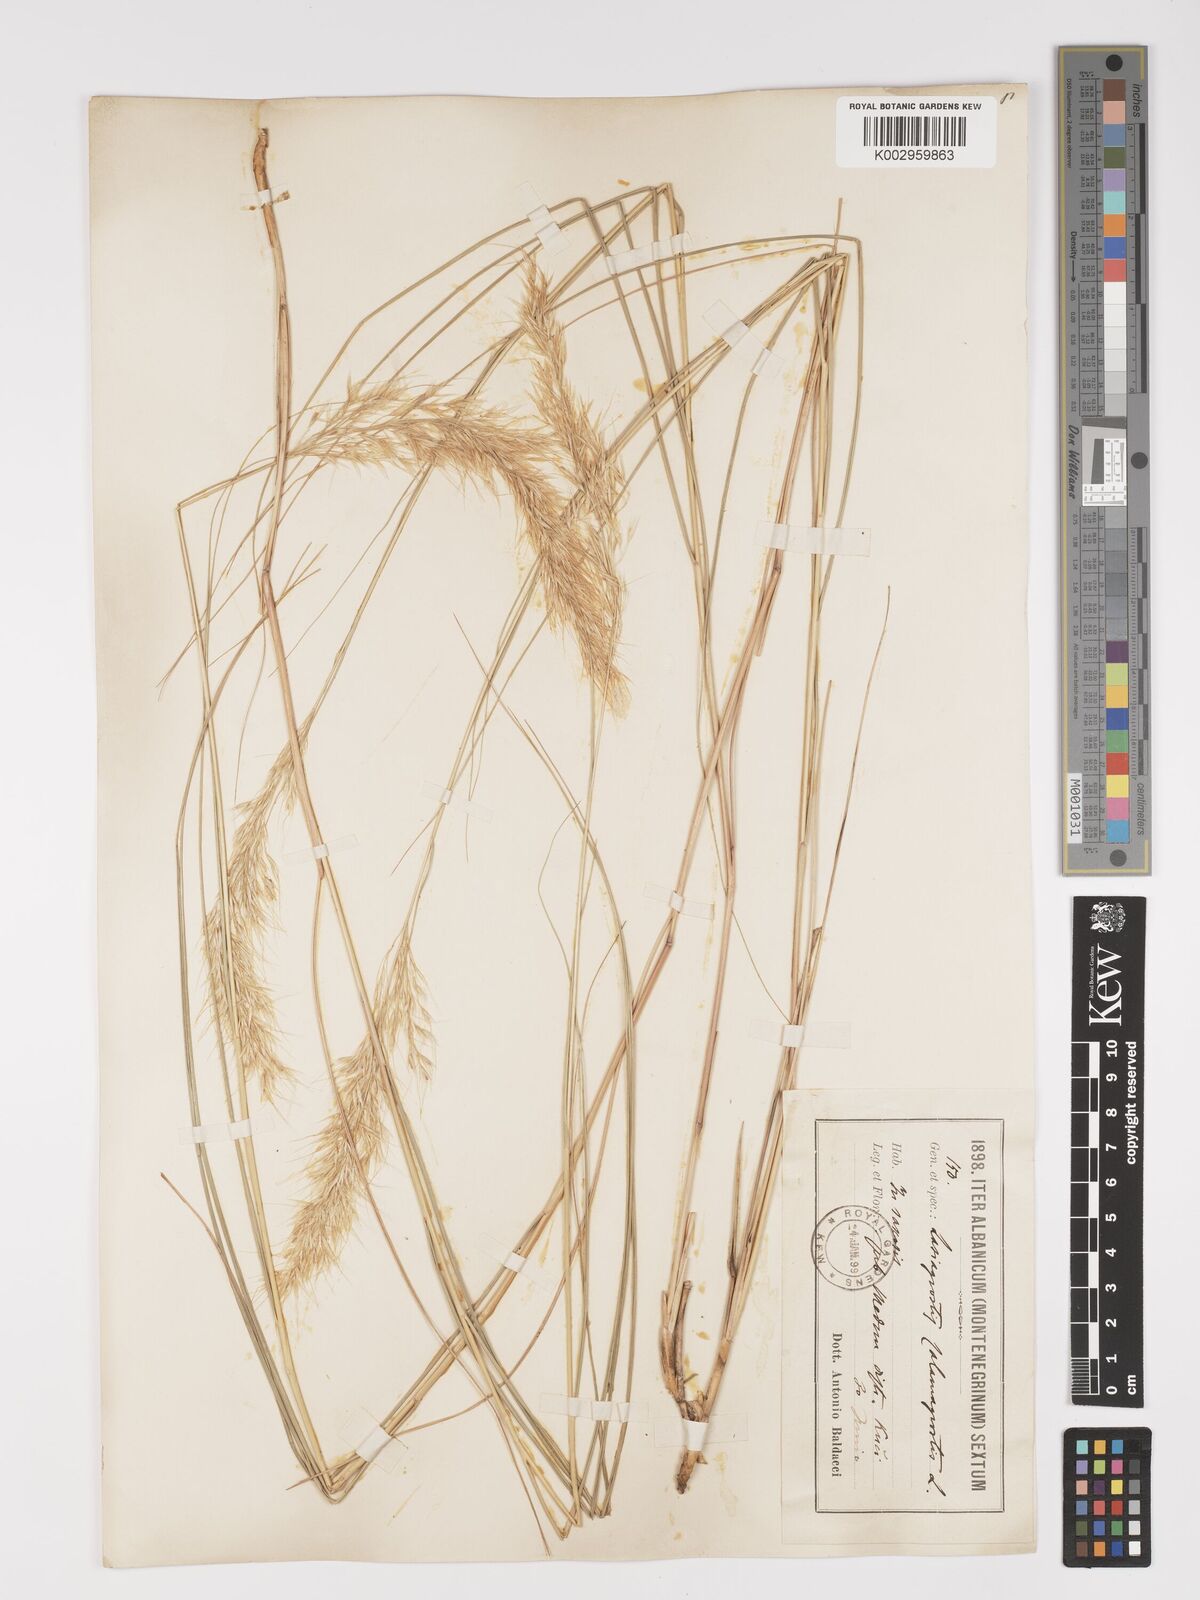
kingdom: Plantae
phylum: Tracheophyta
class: Liliopsida
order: Poales
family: Poaceae
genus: Achnatherum
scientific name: Achnatherum calamagrostis
